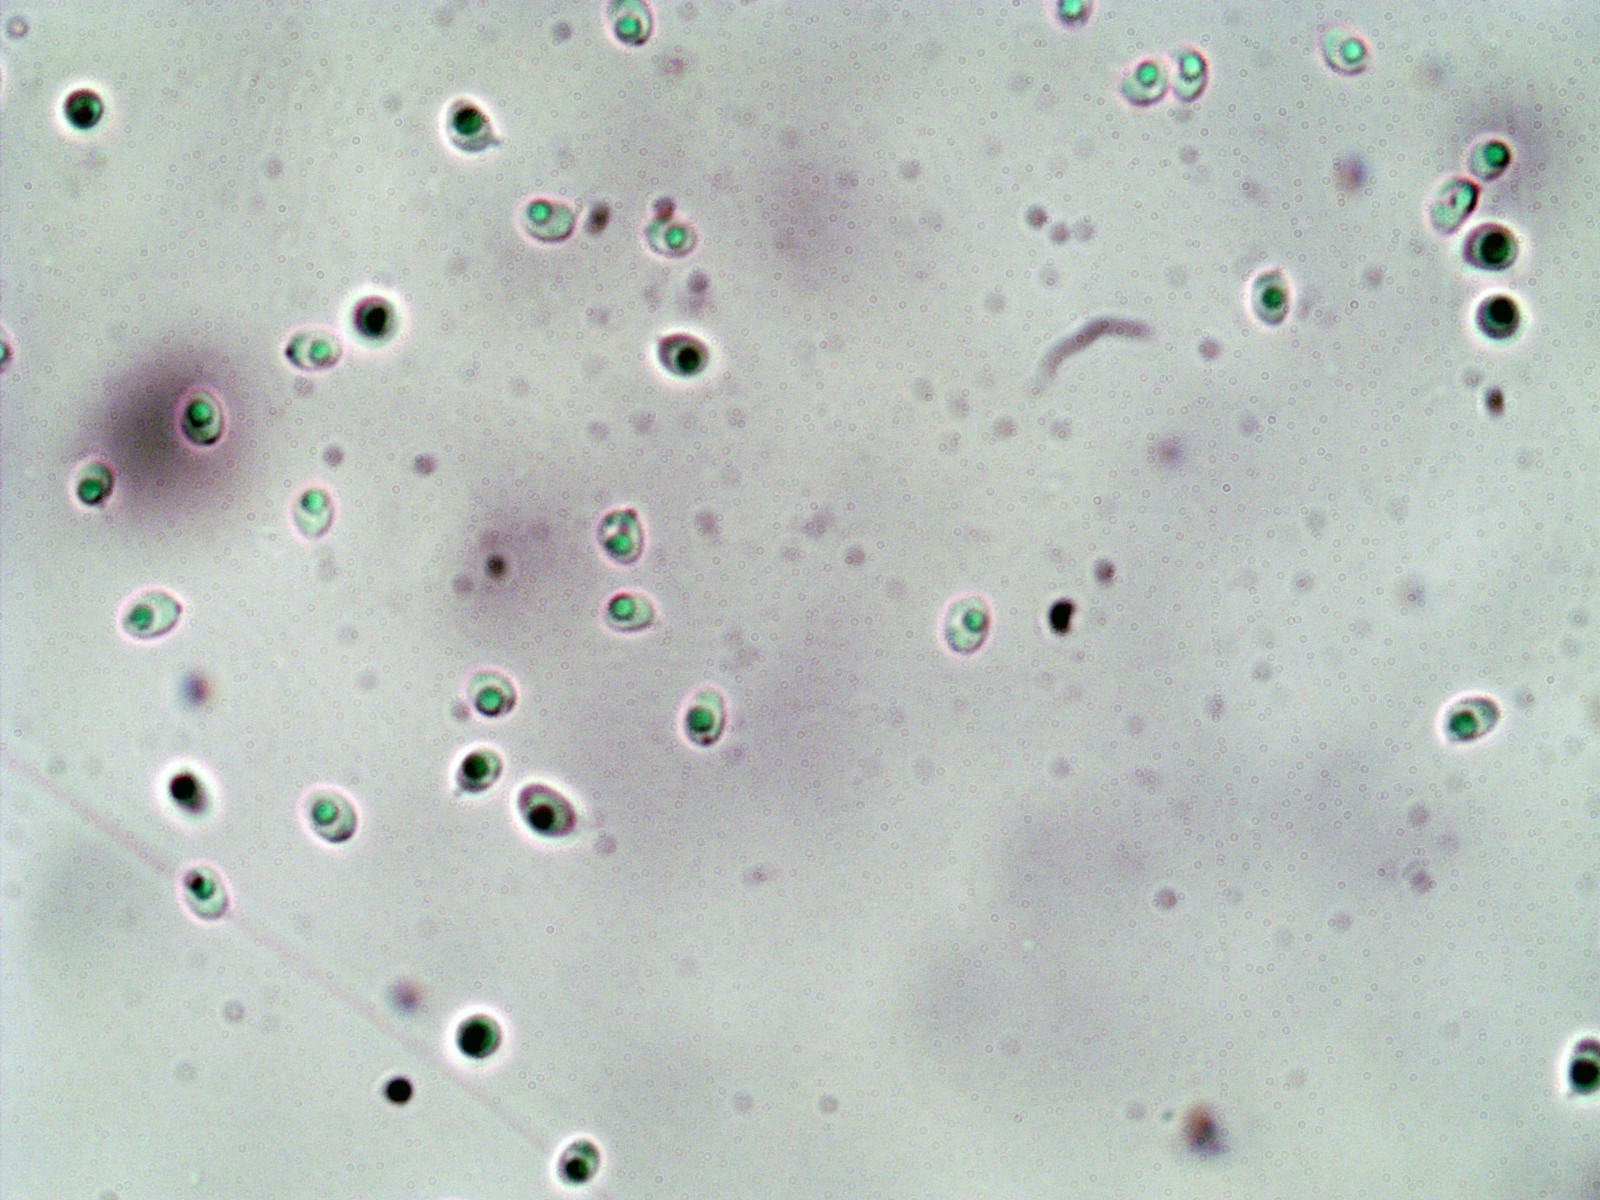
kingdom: Fungi
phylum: Basidiomycota
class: Agaricomycetes
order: Agaricales
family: Callistosporiaceae
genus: Callistosporium
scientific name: Callistosporium pinicola
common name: småsporet ravhat
